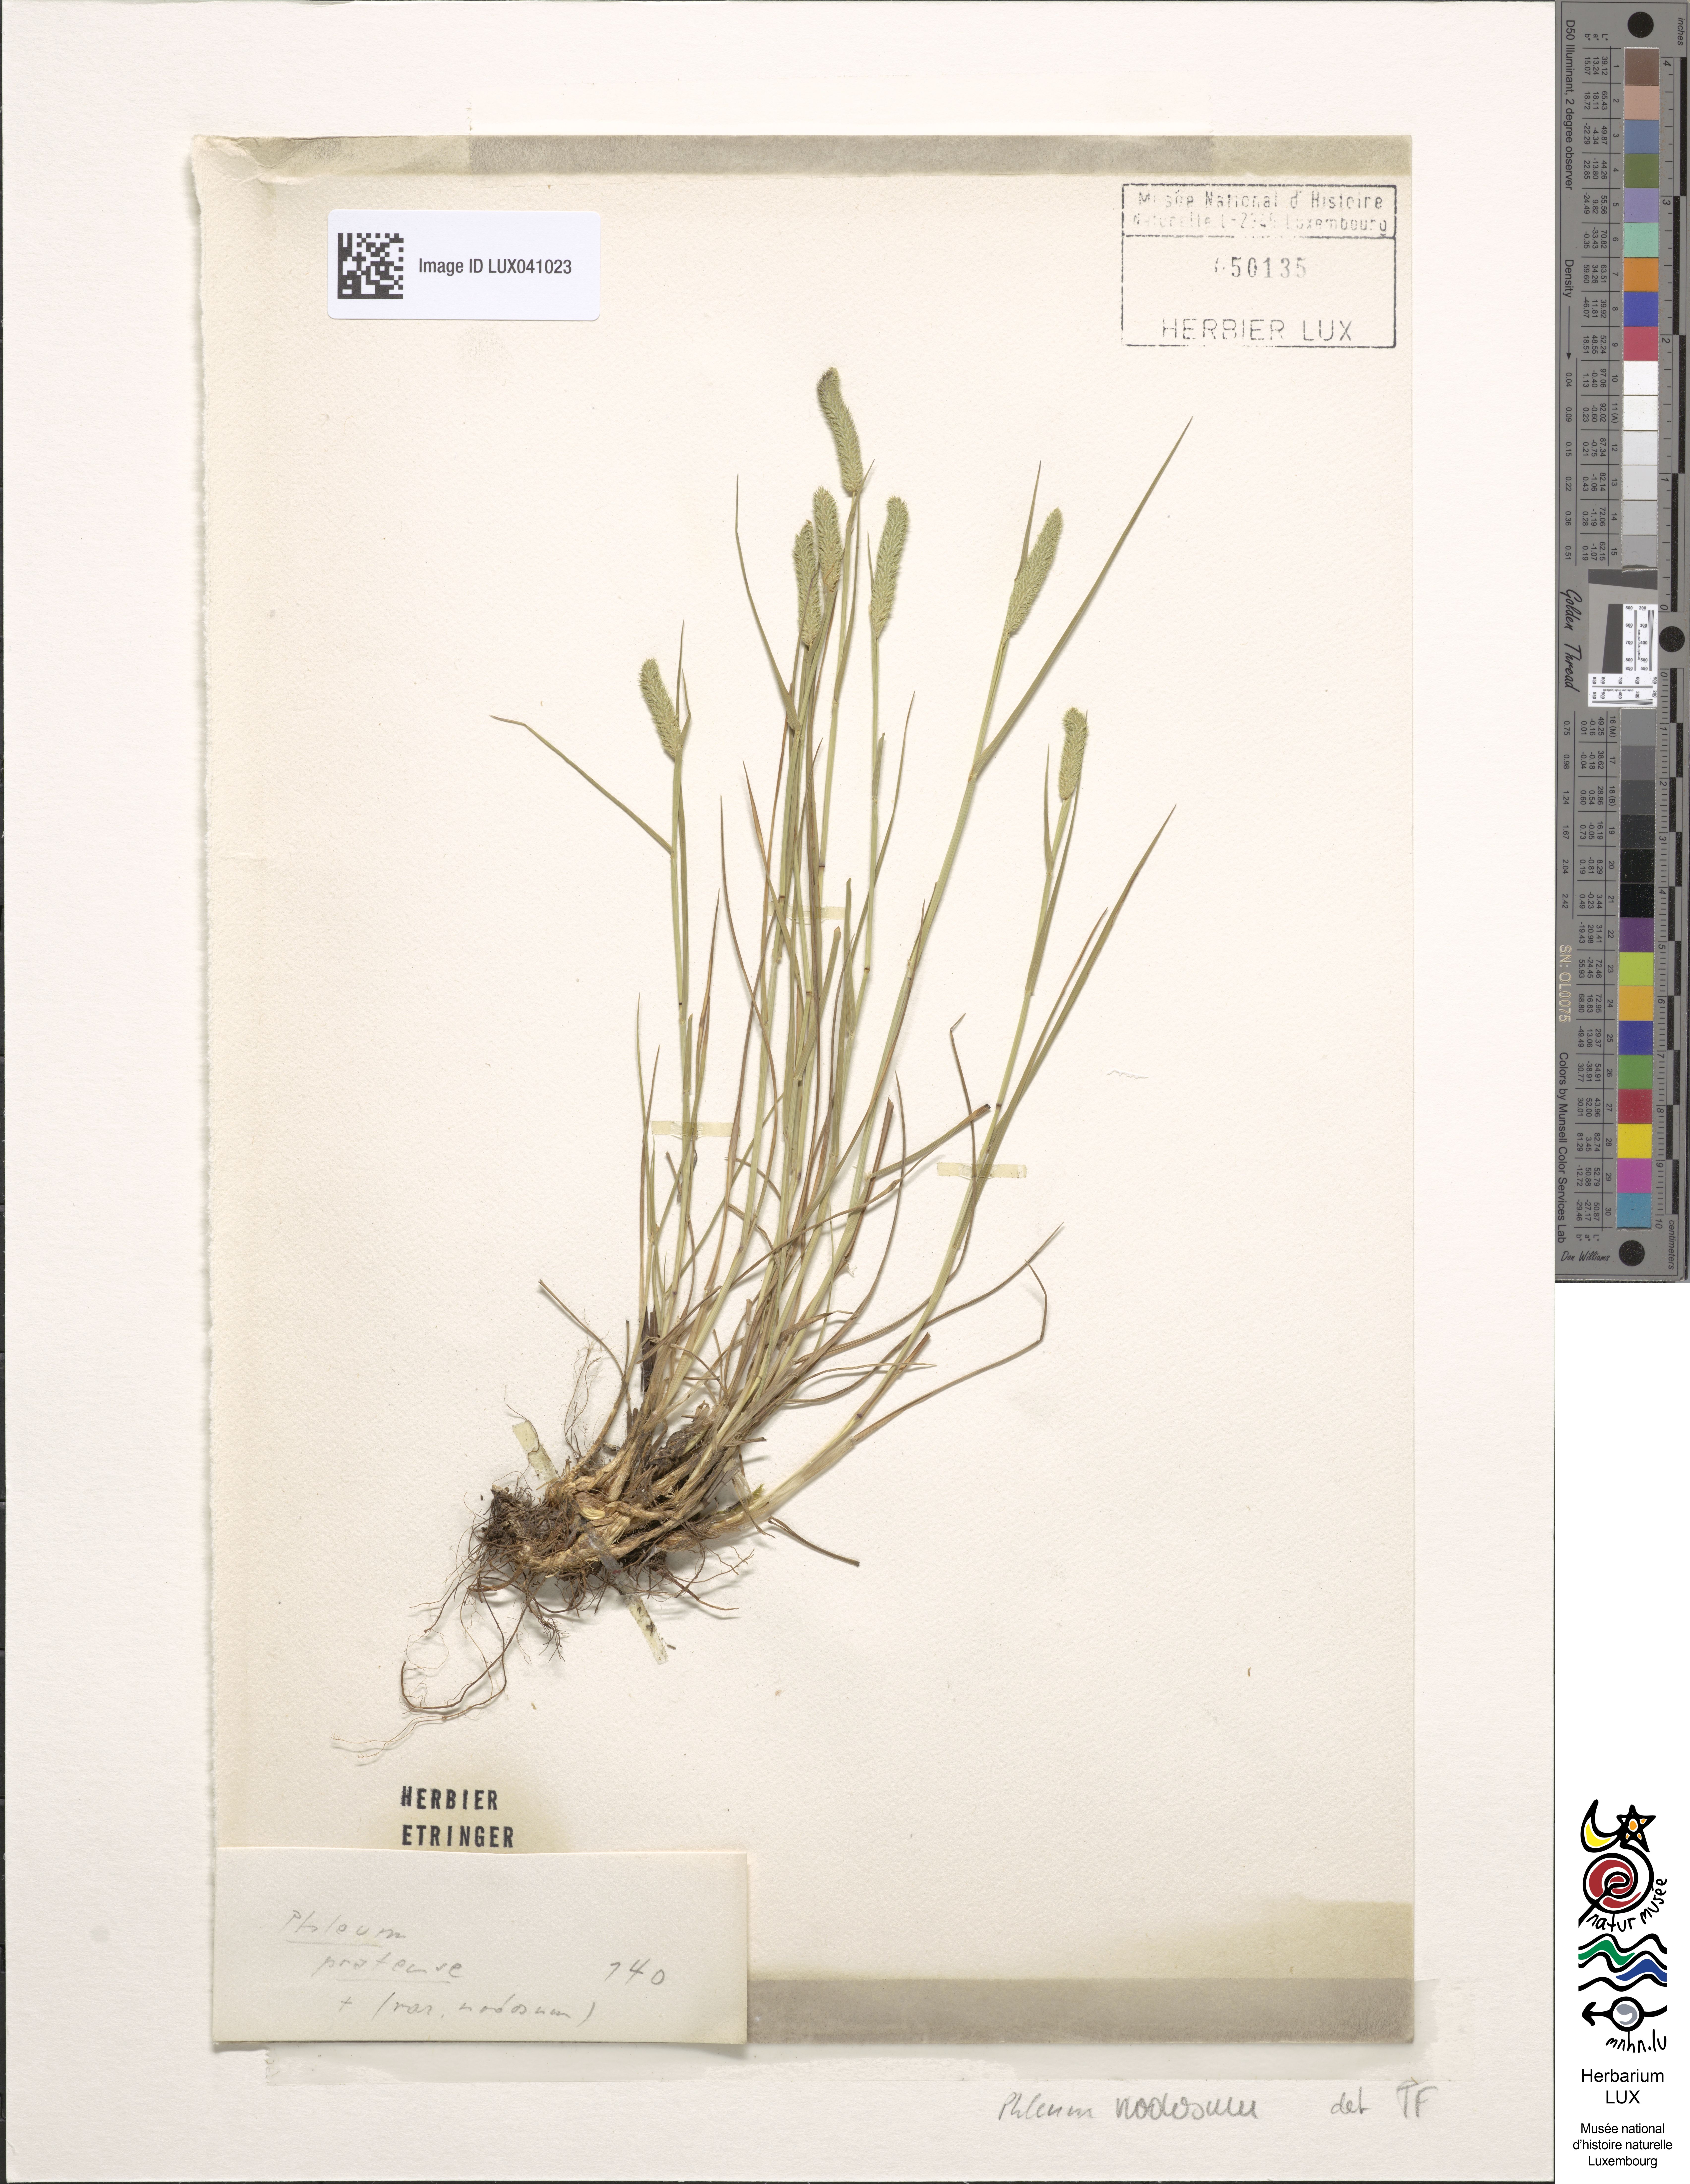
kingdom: Plantae
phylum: Tracheophyta
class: Liliopsida
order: Poales
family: Poaceae
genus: Phleum
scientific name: Phleum pratense
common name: Timothy grass
